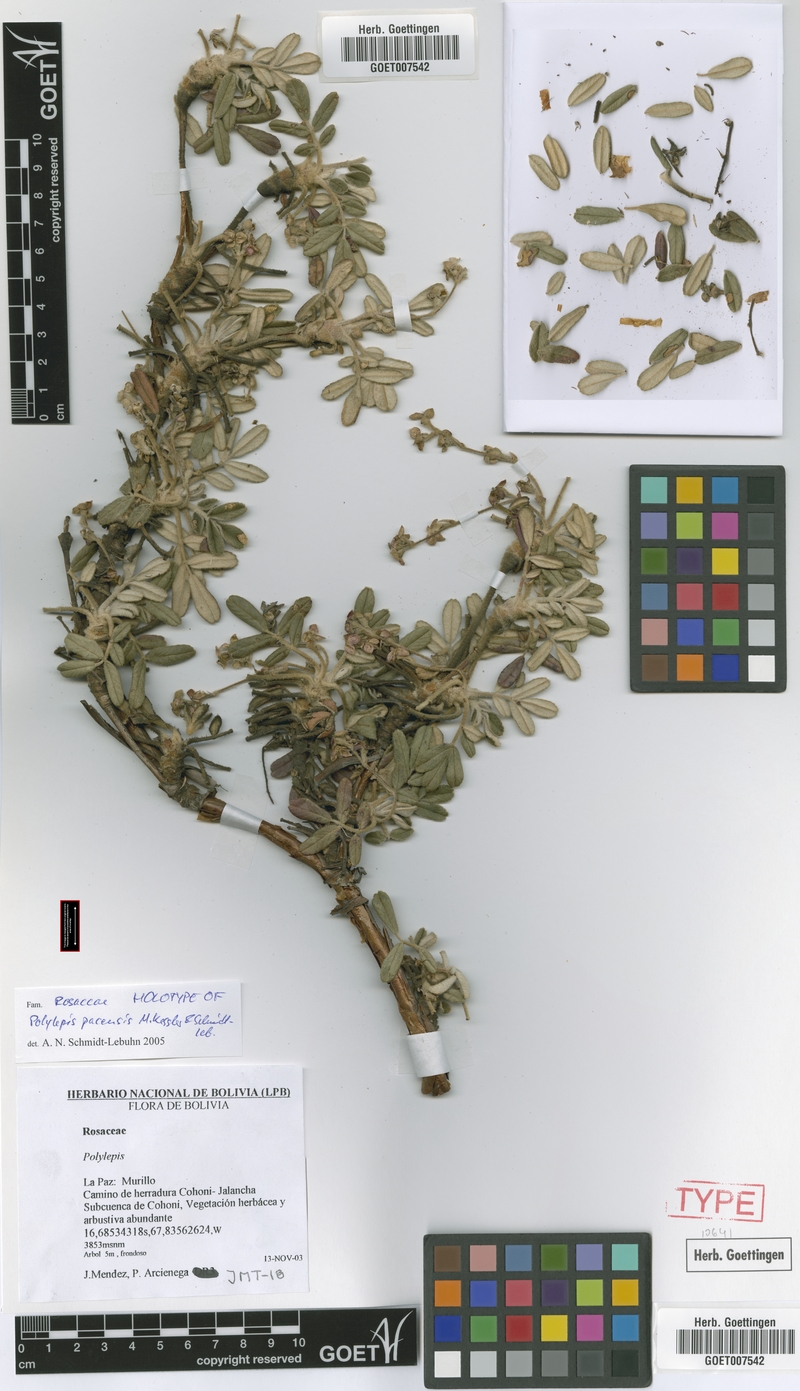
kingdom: Plantae
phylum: Tracheophyta
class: Magnoliopsida
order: Rosales
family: Rosaceae
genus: Polylepis
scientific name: Polylepis pacensis
